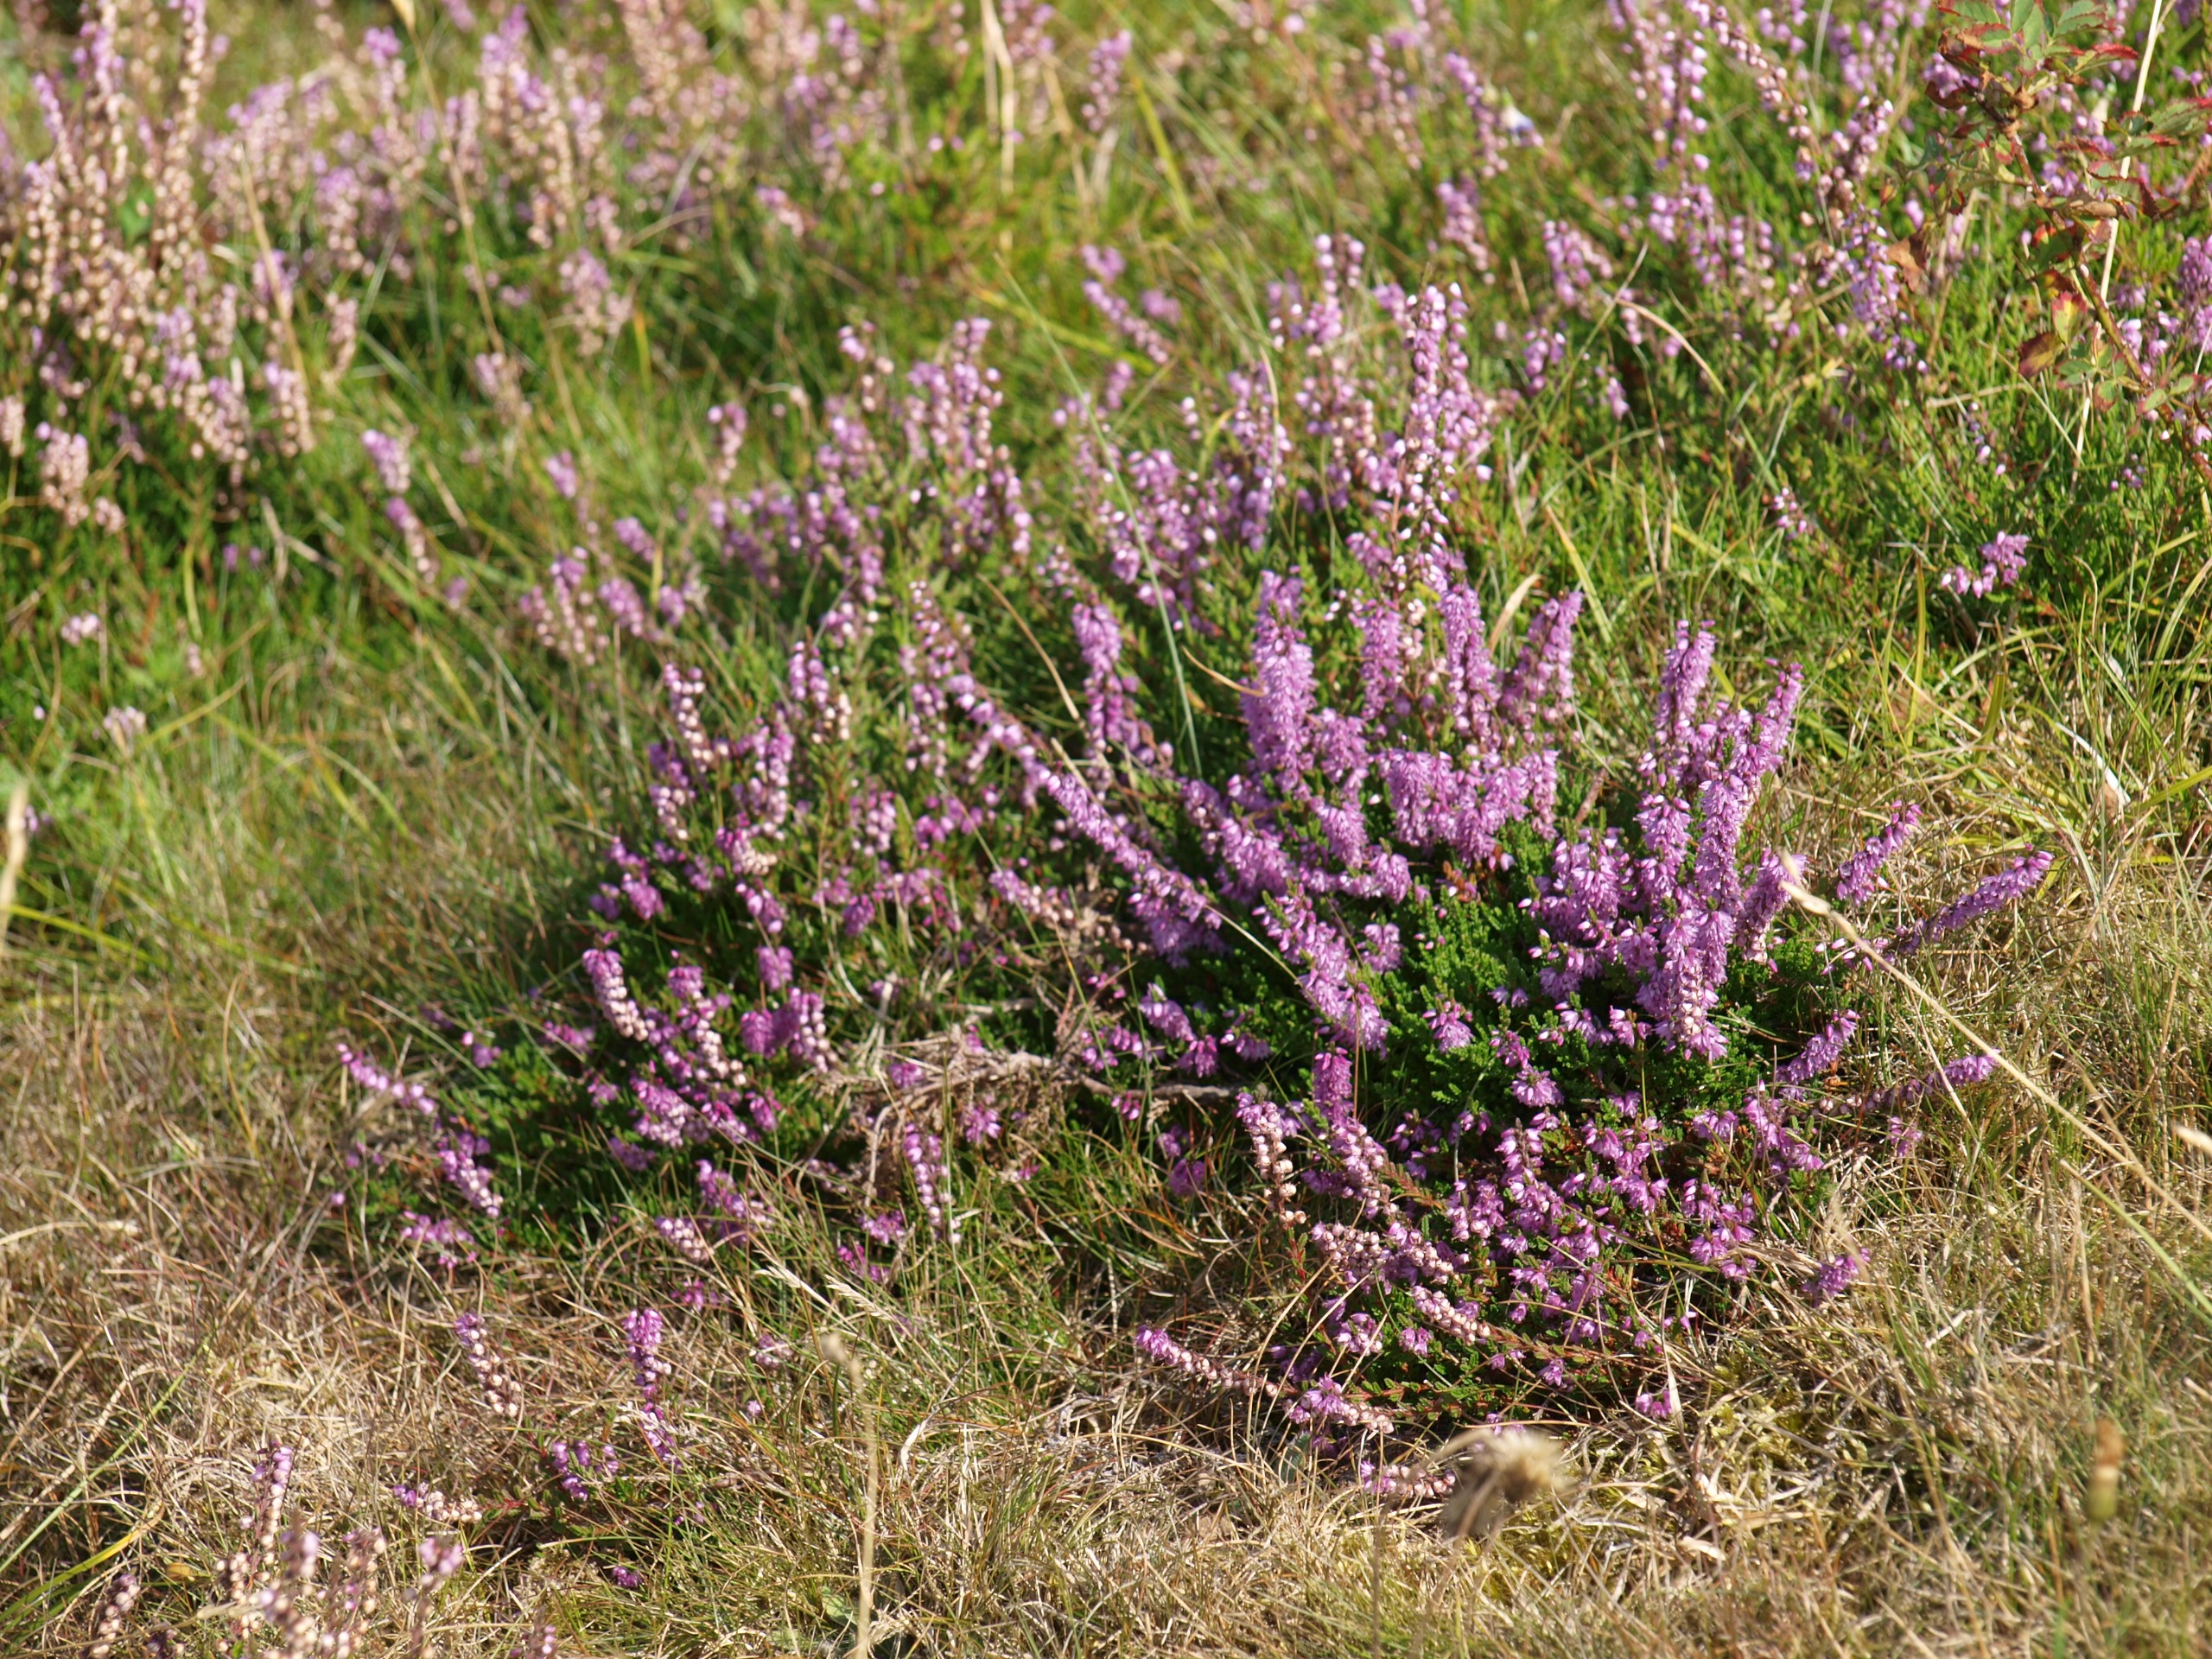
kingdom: Plantae
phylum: Tracheophyta
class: Magnoliopsida
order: Ericales
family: Ericaceae
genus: Calluna
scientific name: Calluna vulgaris
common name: Hedelyng
